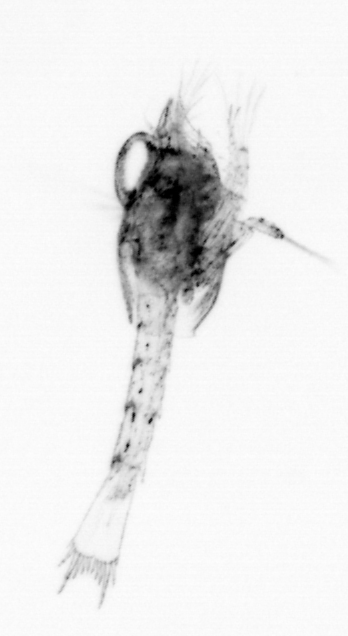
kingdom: Animalia
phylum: Arthropoda
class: Malacostraca
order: Decapoda
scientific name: Decapoda
